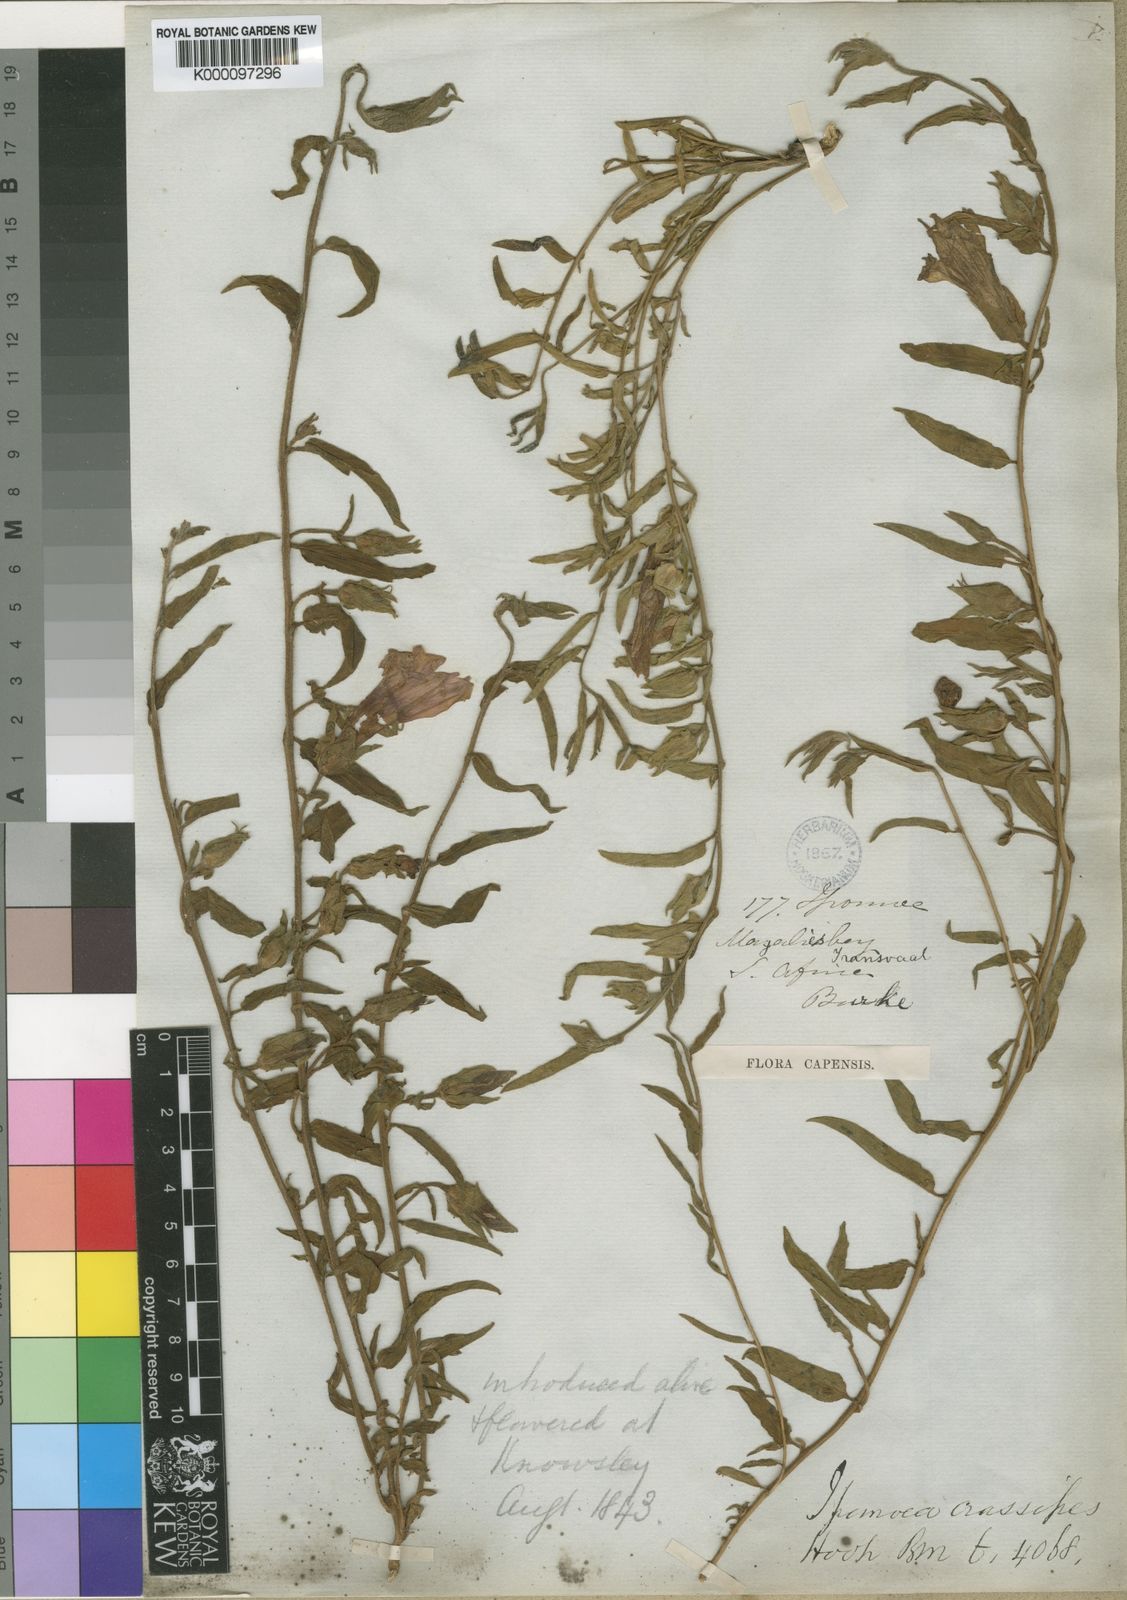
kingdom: Plantae
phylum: Tracheophyta
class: Magnoliopsida
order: Solanales
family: Convolvulaceae
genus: Ipomoea
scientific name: Ipomoea crassipes
